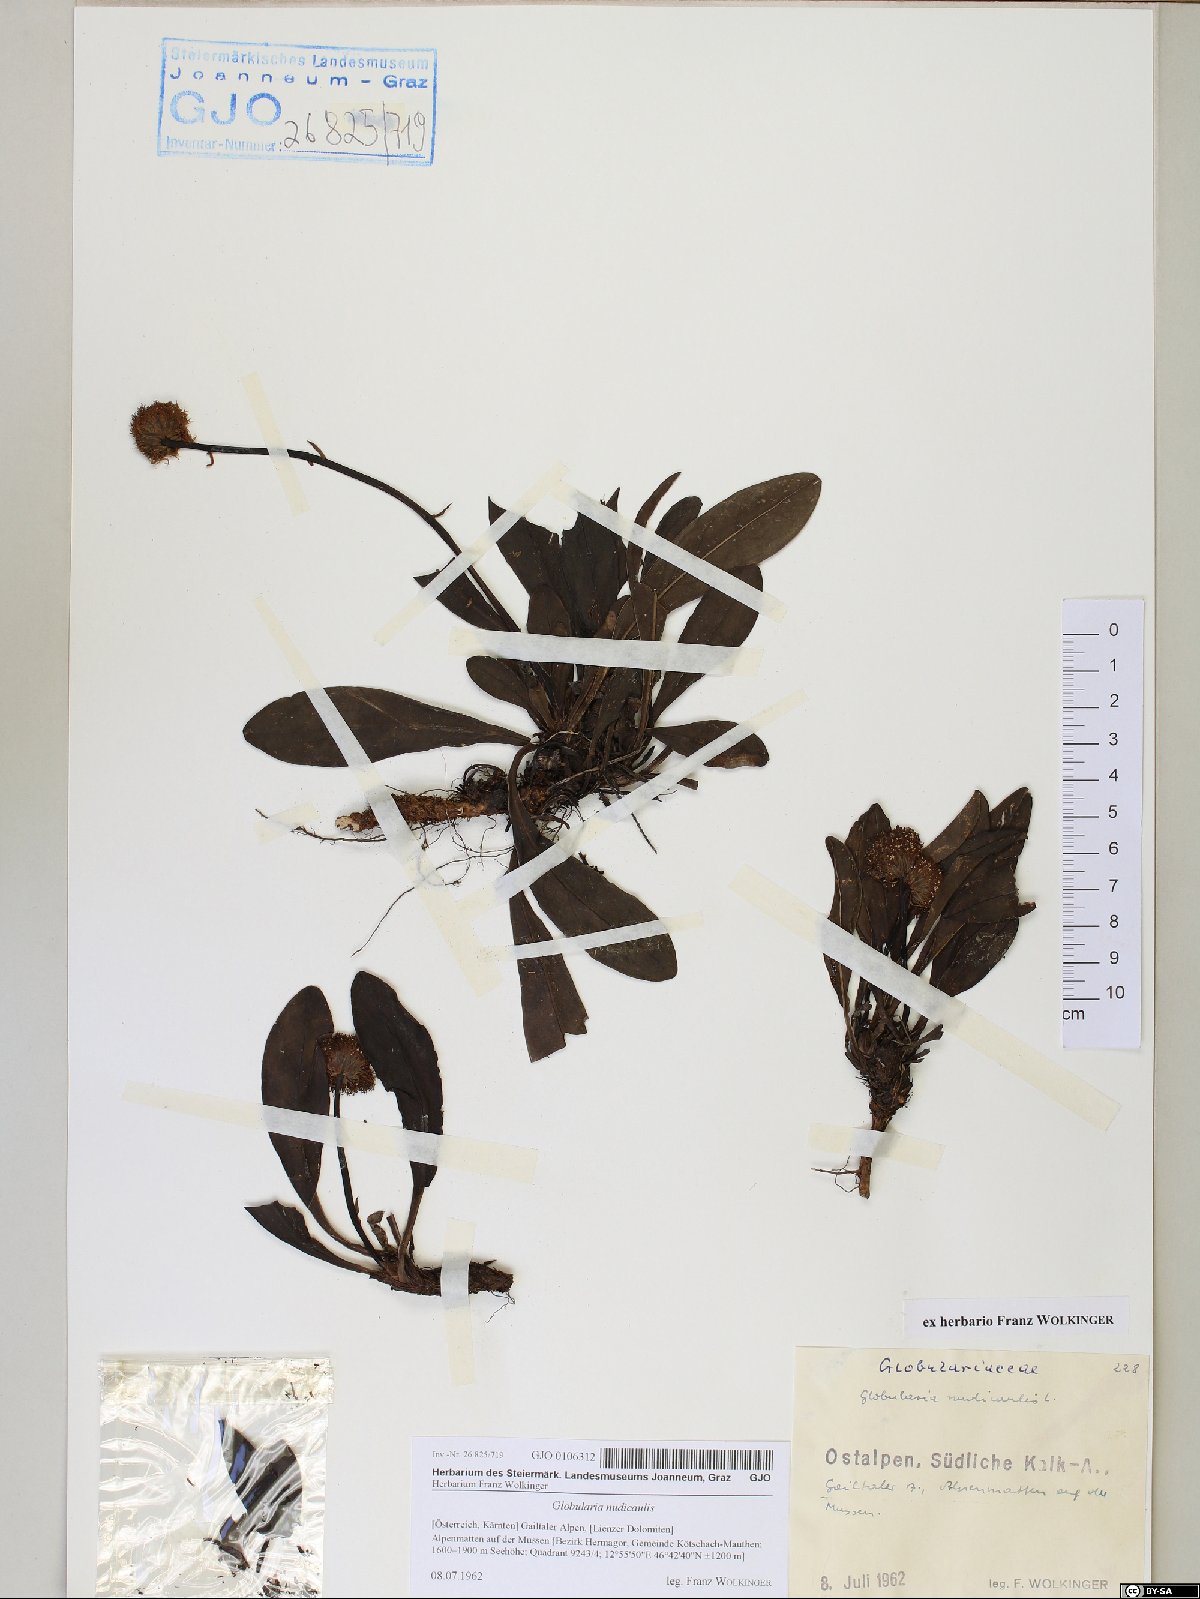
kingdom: Plantae
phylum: Tracheophyta
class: Magnoliopsida
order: Lamiales
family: Plantaginaceae
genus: Globularia
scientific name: Globularia nudicaulis
